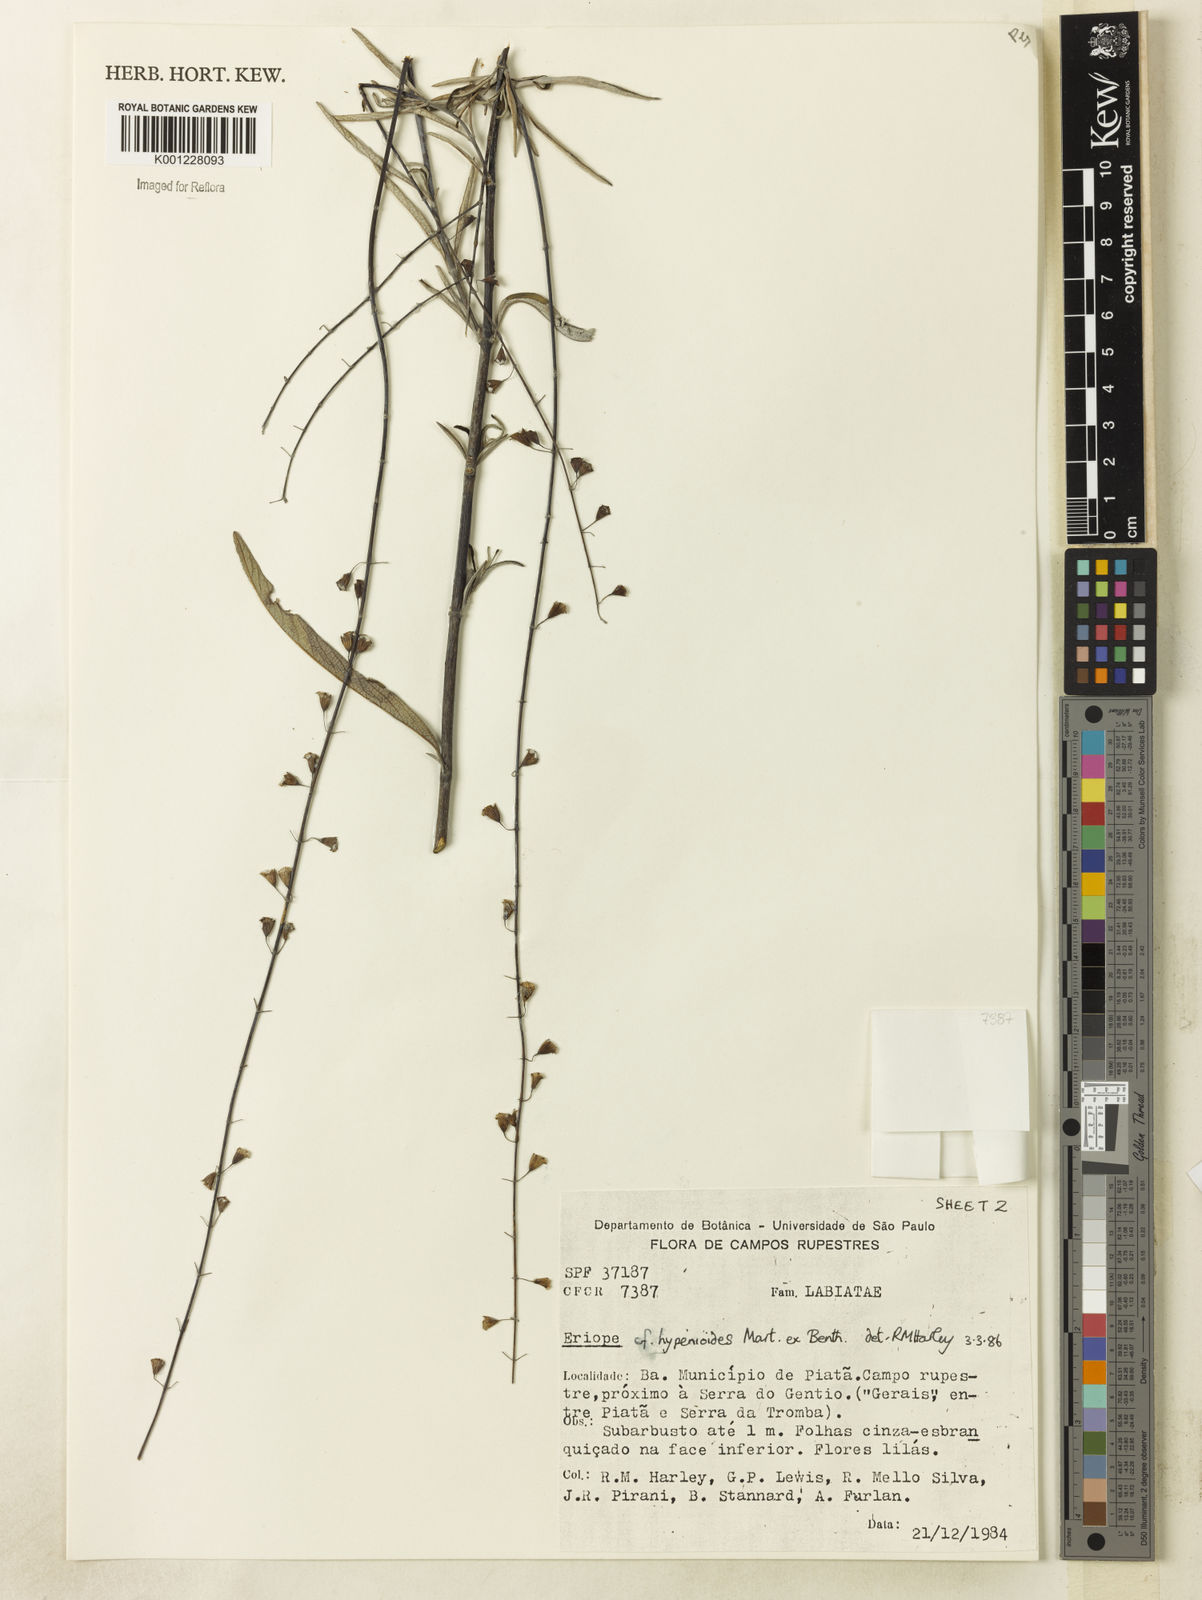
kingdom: Plantae
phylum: Tracheophyta
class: Magnoliopsida
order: Lamiales
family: Lamiaceae
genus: Eriope
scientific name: Eriope hypenioides
